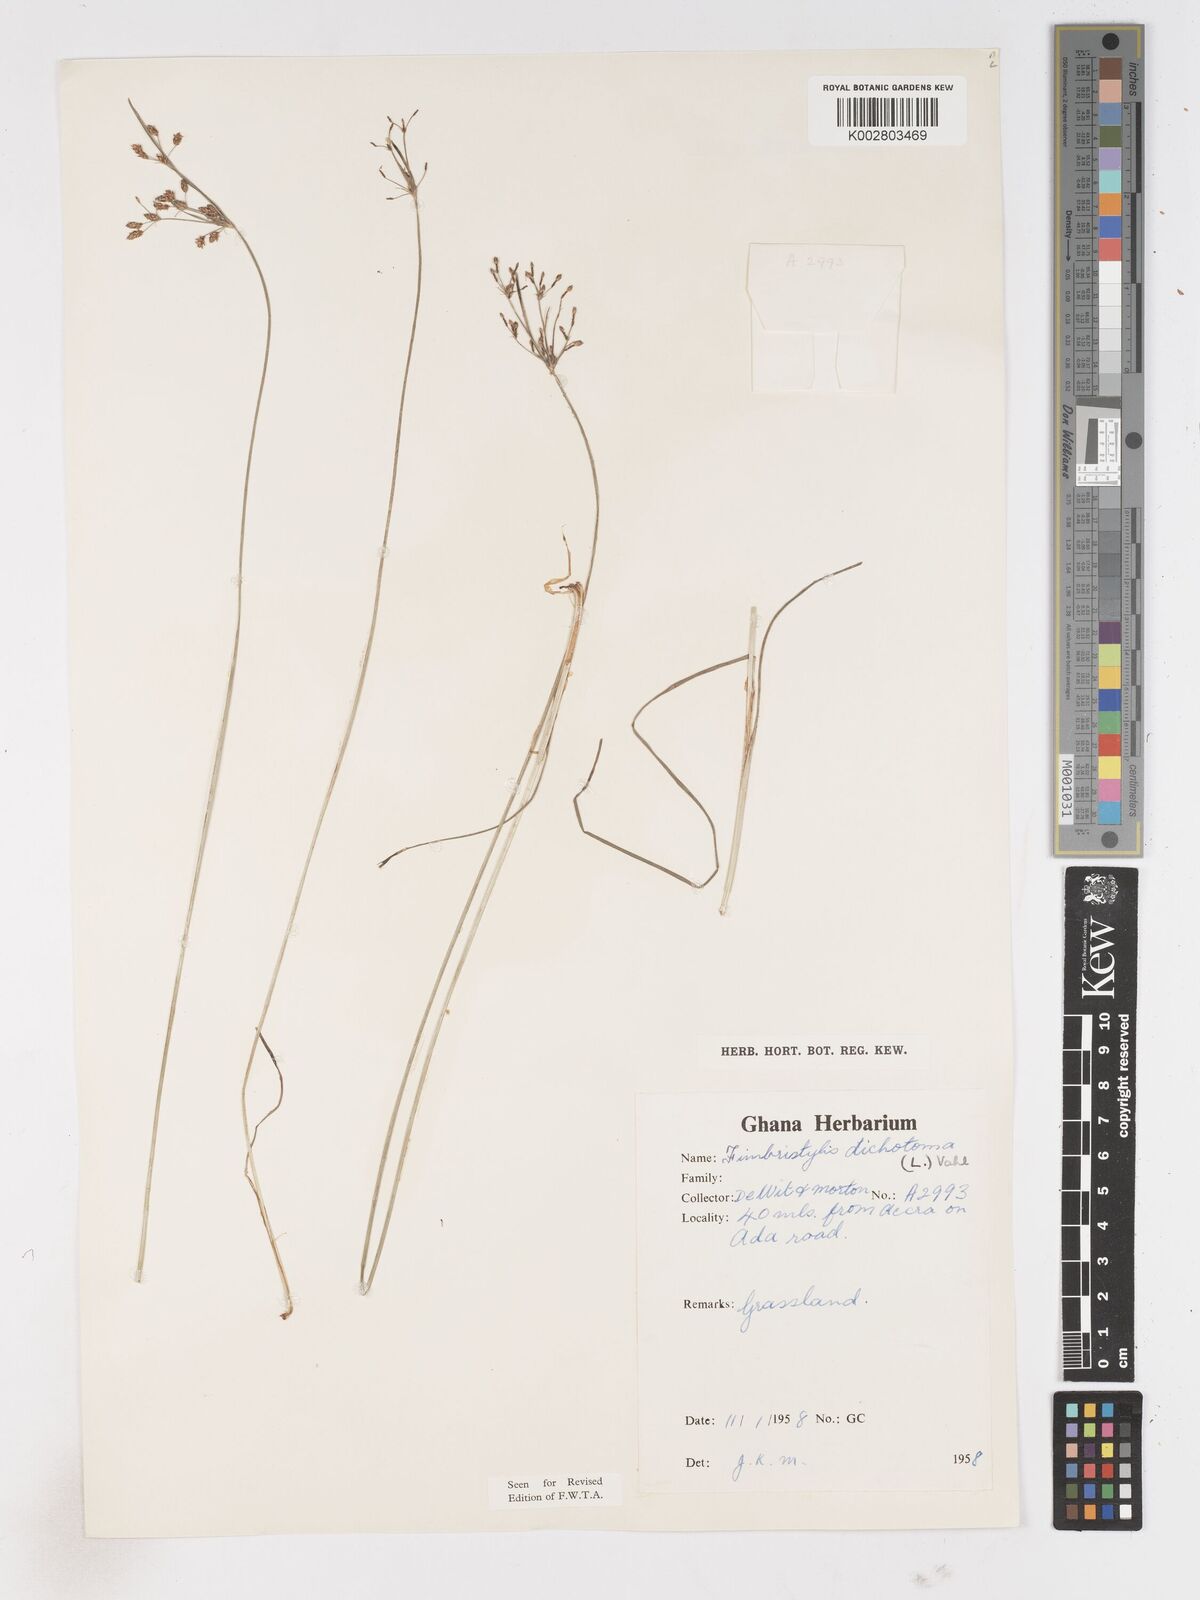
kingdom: Plantae
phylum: Tracheophyta
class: Liliopsida
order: Poales
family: Cyperaceae
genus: Fimbristylis
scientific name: Fimbristylis dichotoma
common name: Forked fimbry
